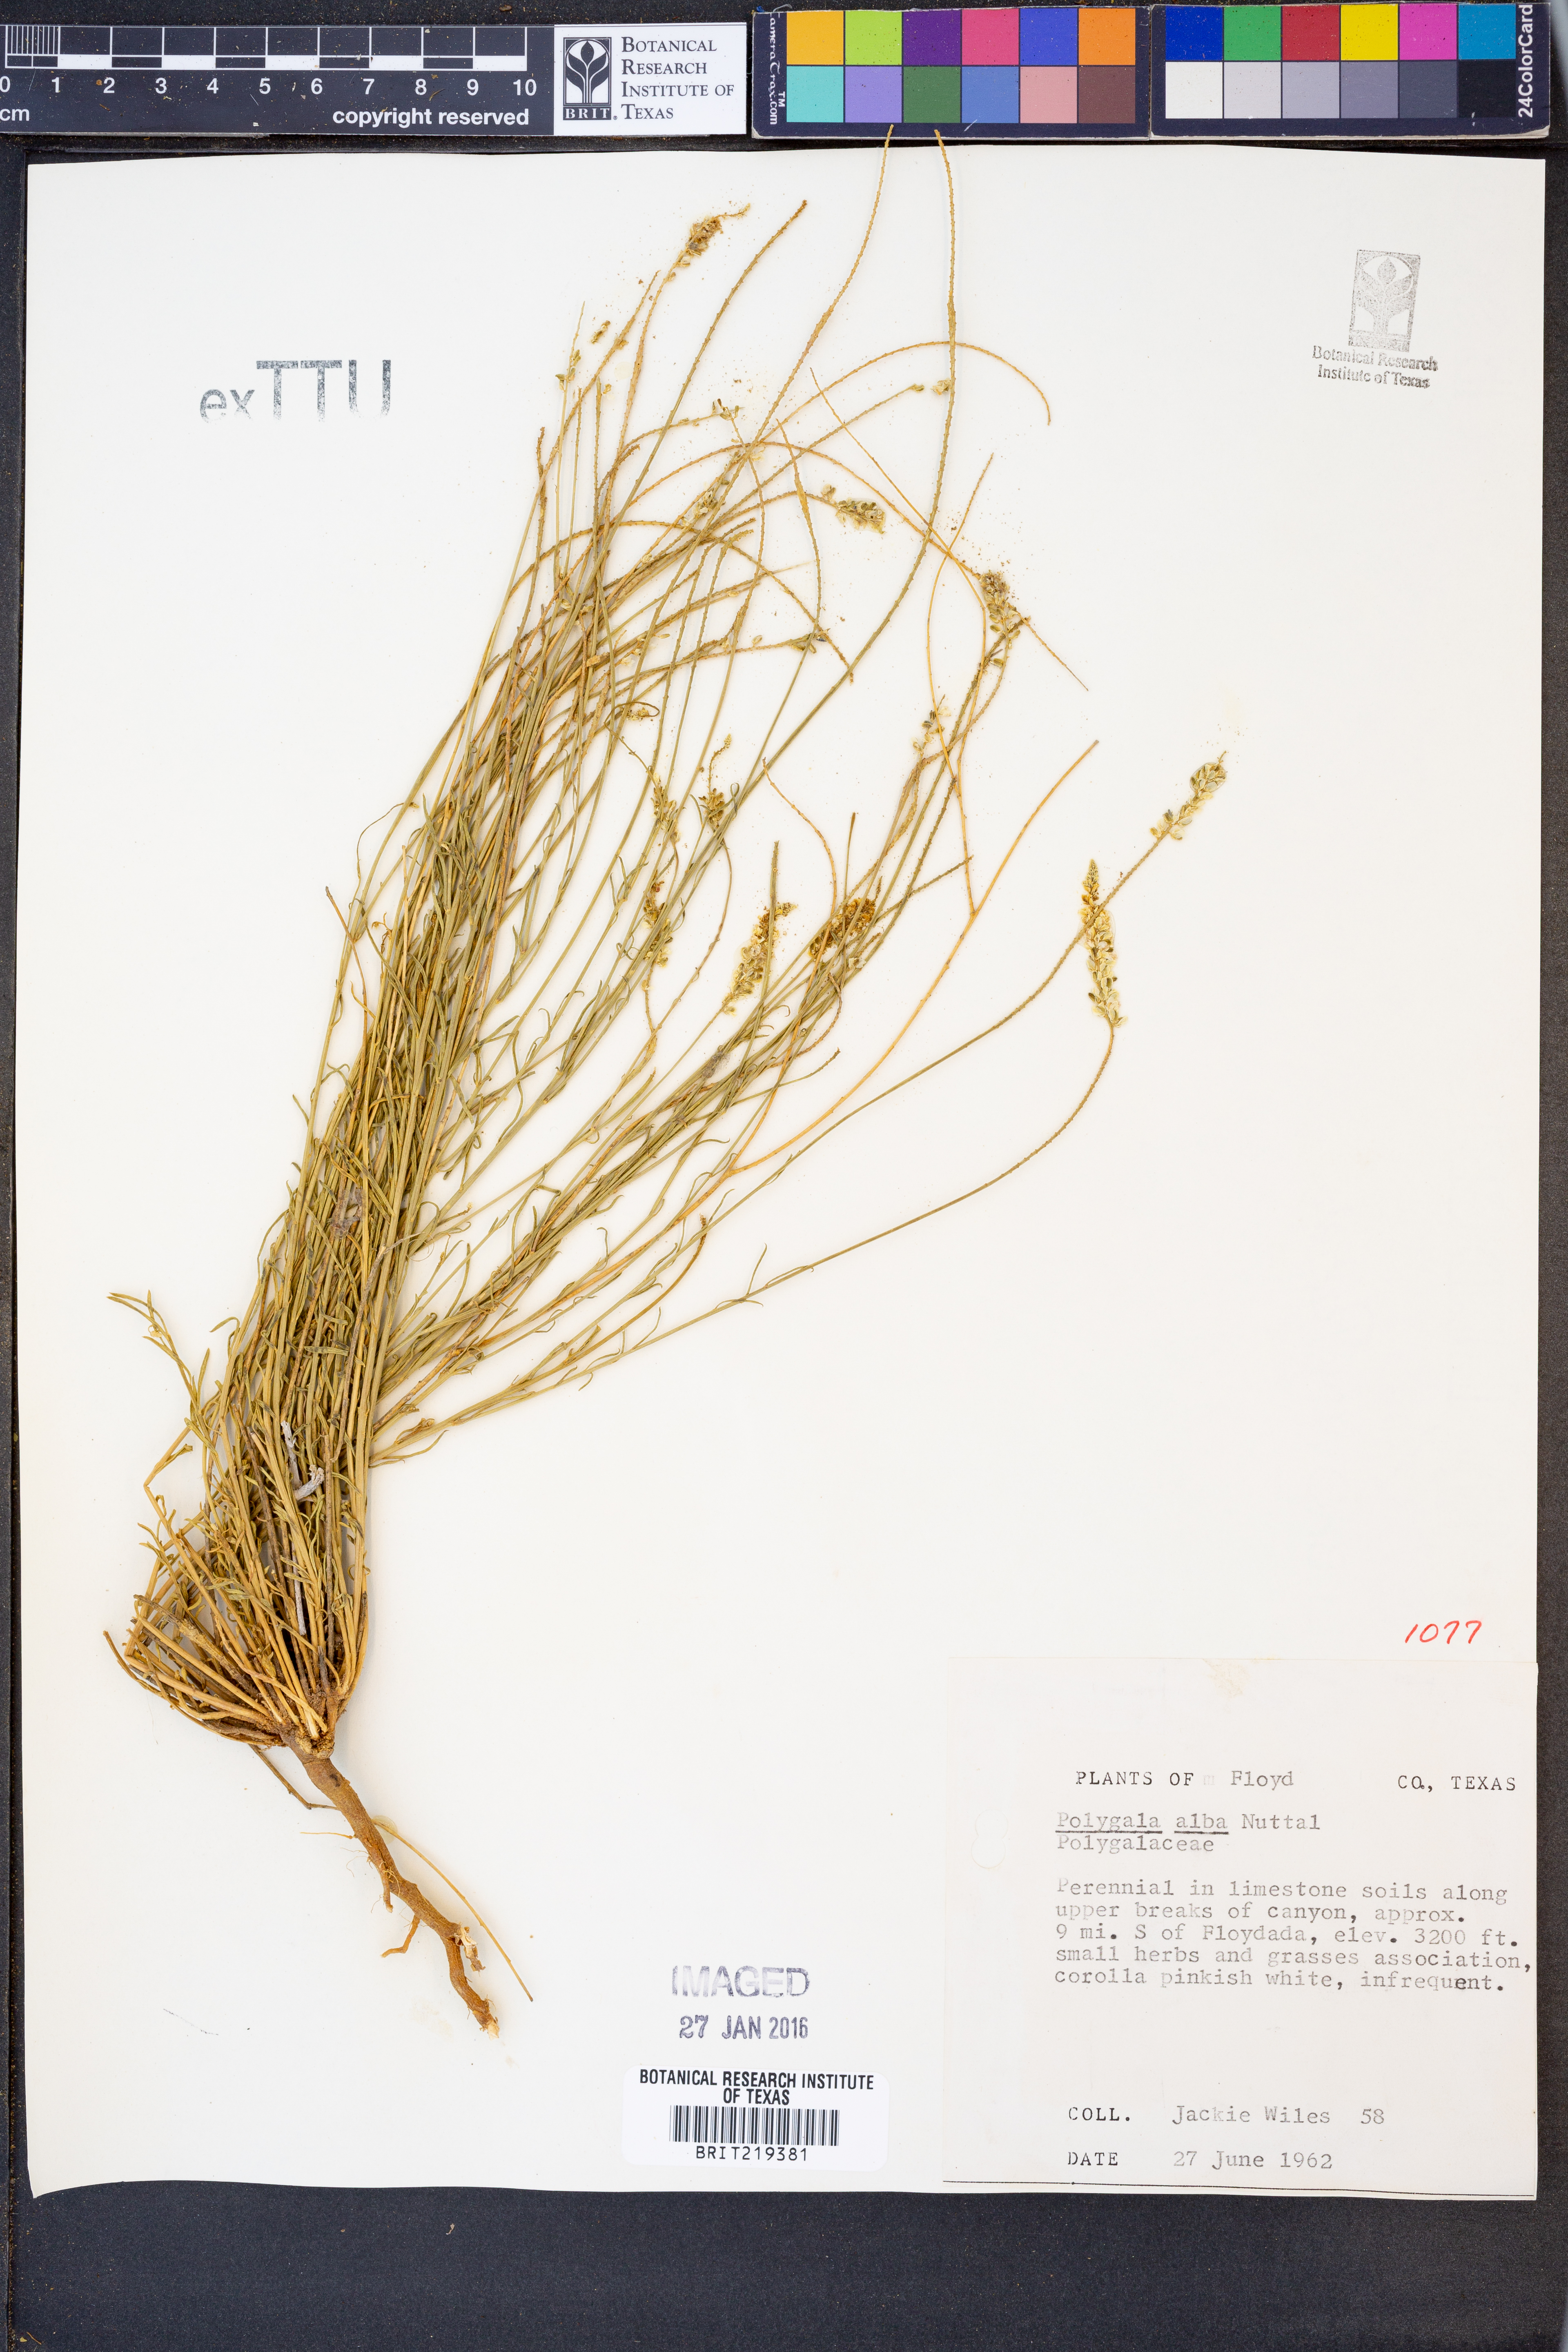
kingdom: Plantae
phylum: Tracheophyta
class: Magnoliopsida
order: Fabales
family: Polygalaceae
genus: Polygala
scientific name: Polygala alba
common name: White milkwort
